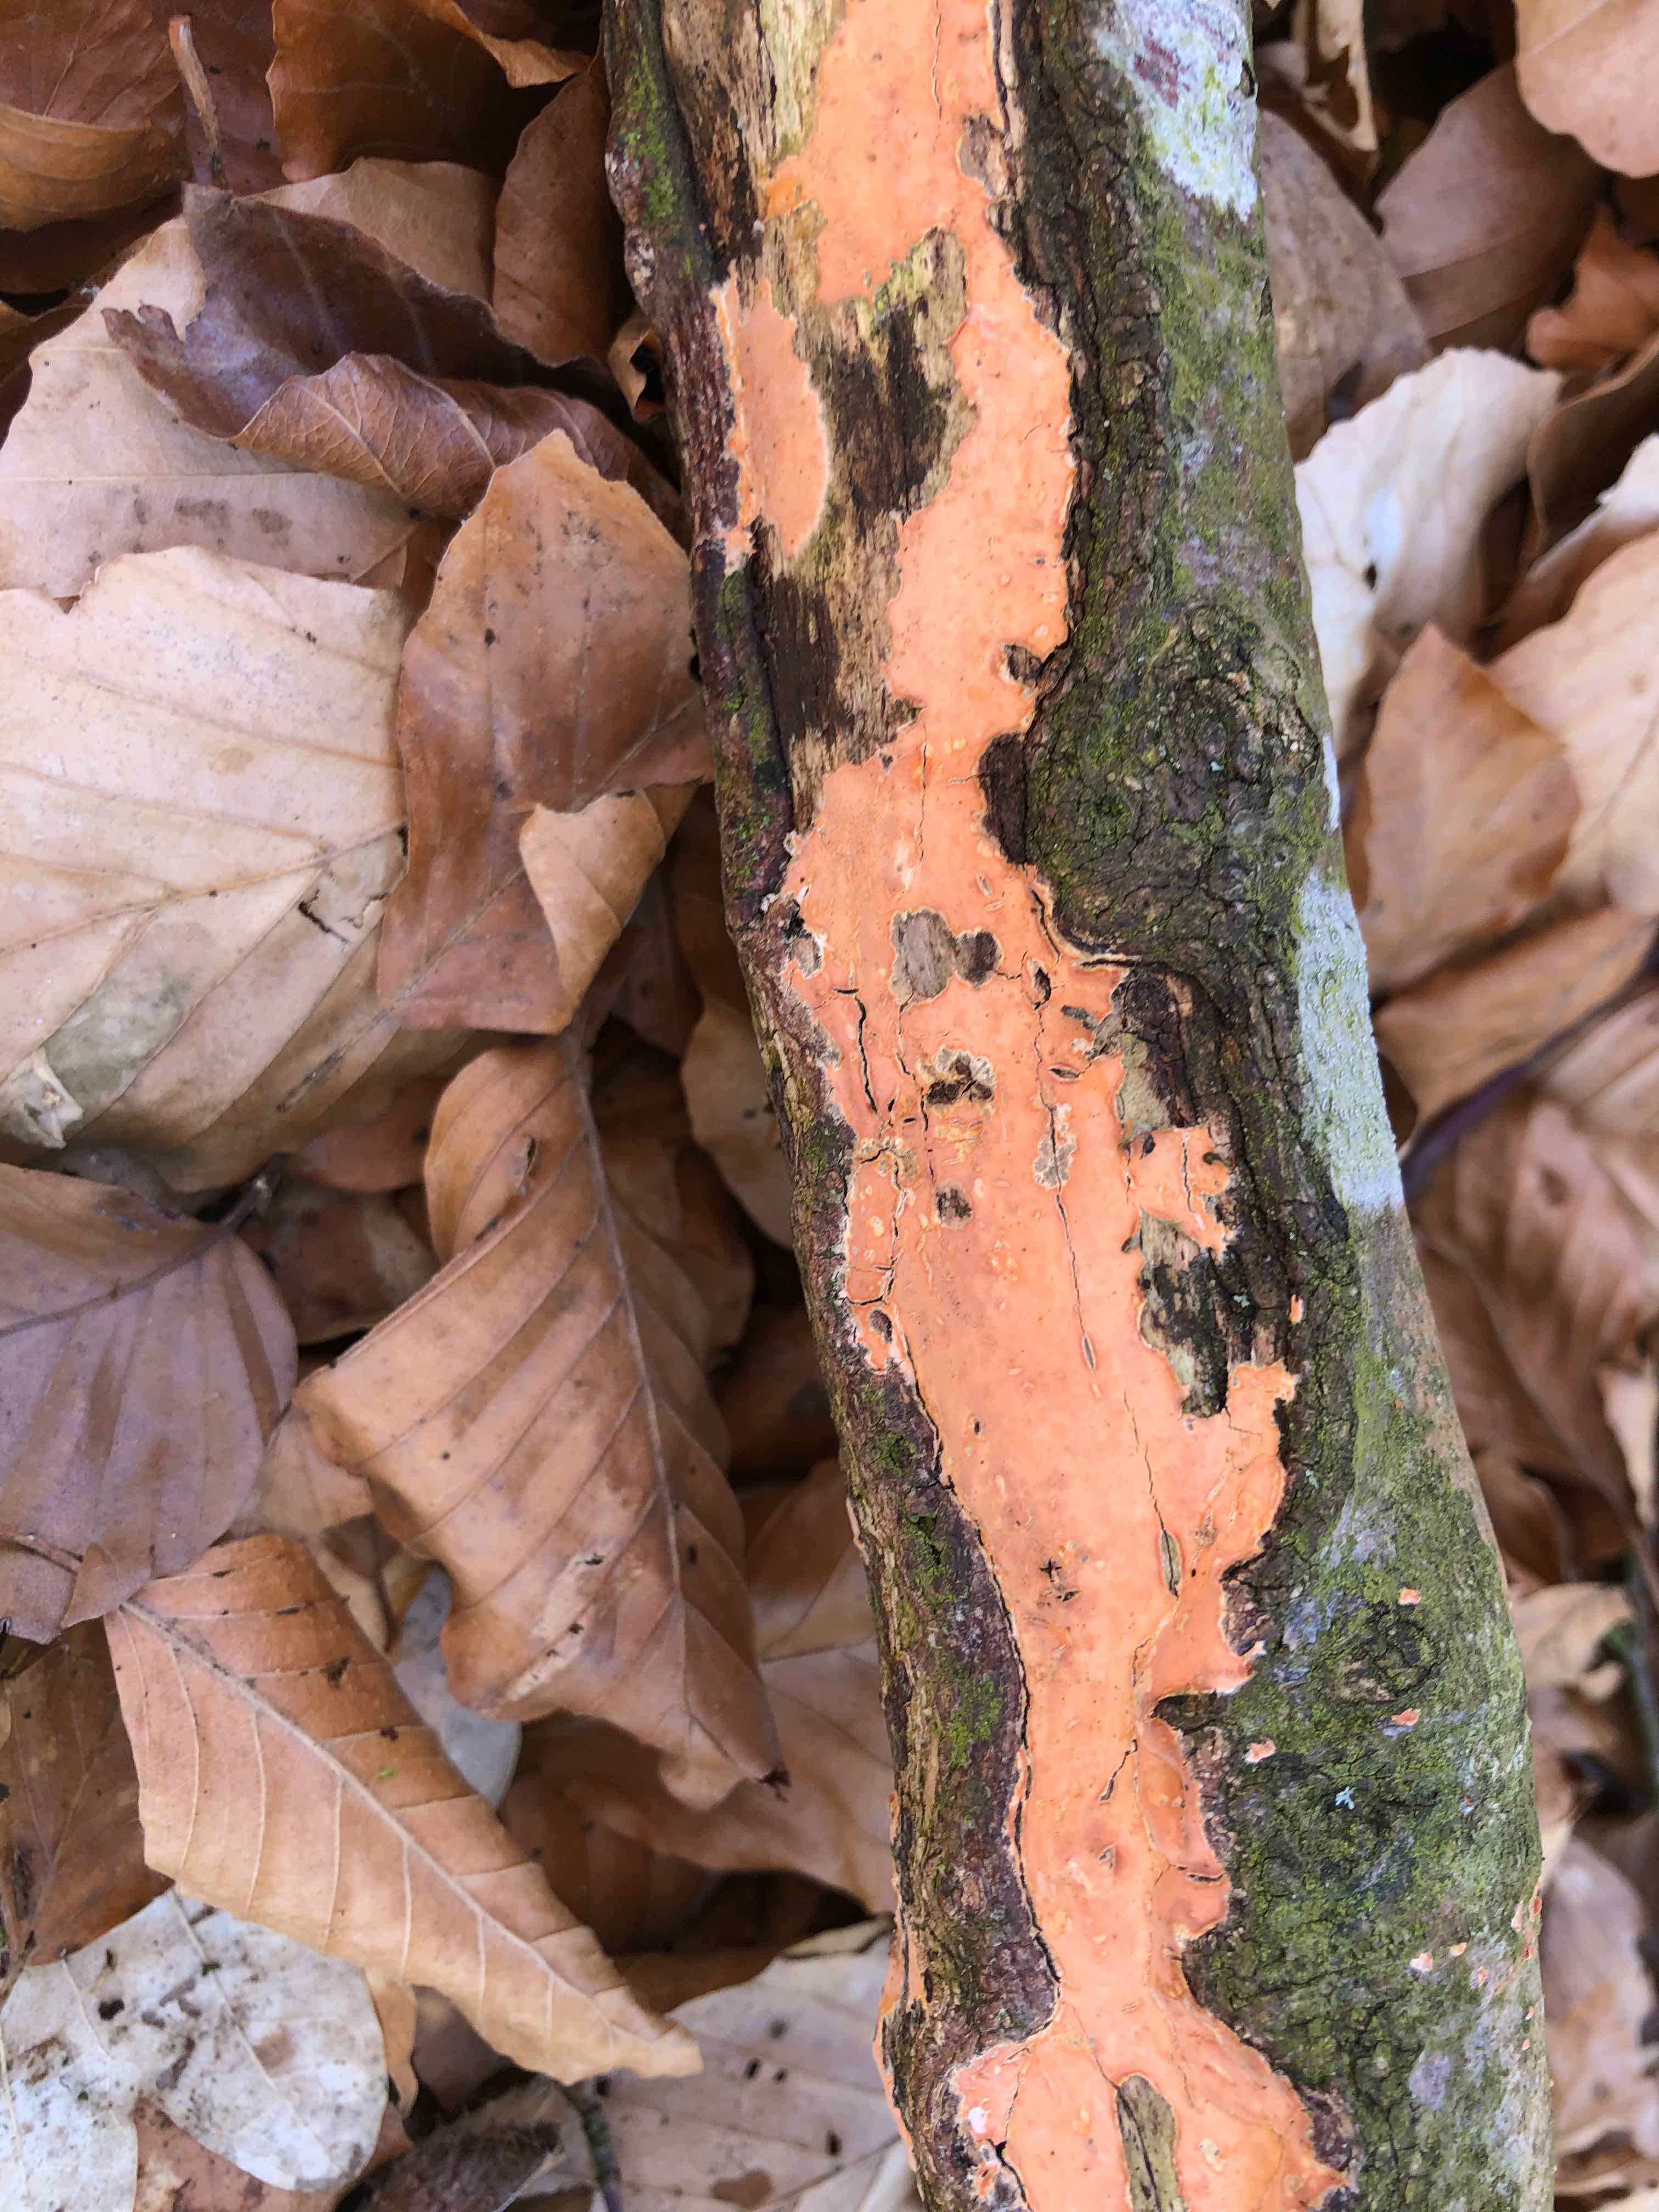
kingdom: Fungi
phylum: Basidiomycota
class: Agaricomycetes
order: Russulales
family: Peniophoraceae
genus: Peniophora
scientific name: Peniophora incarnata
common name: laksefarvet voksskind
